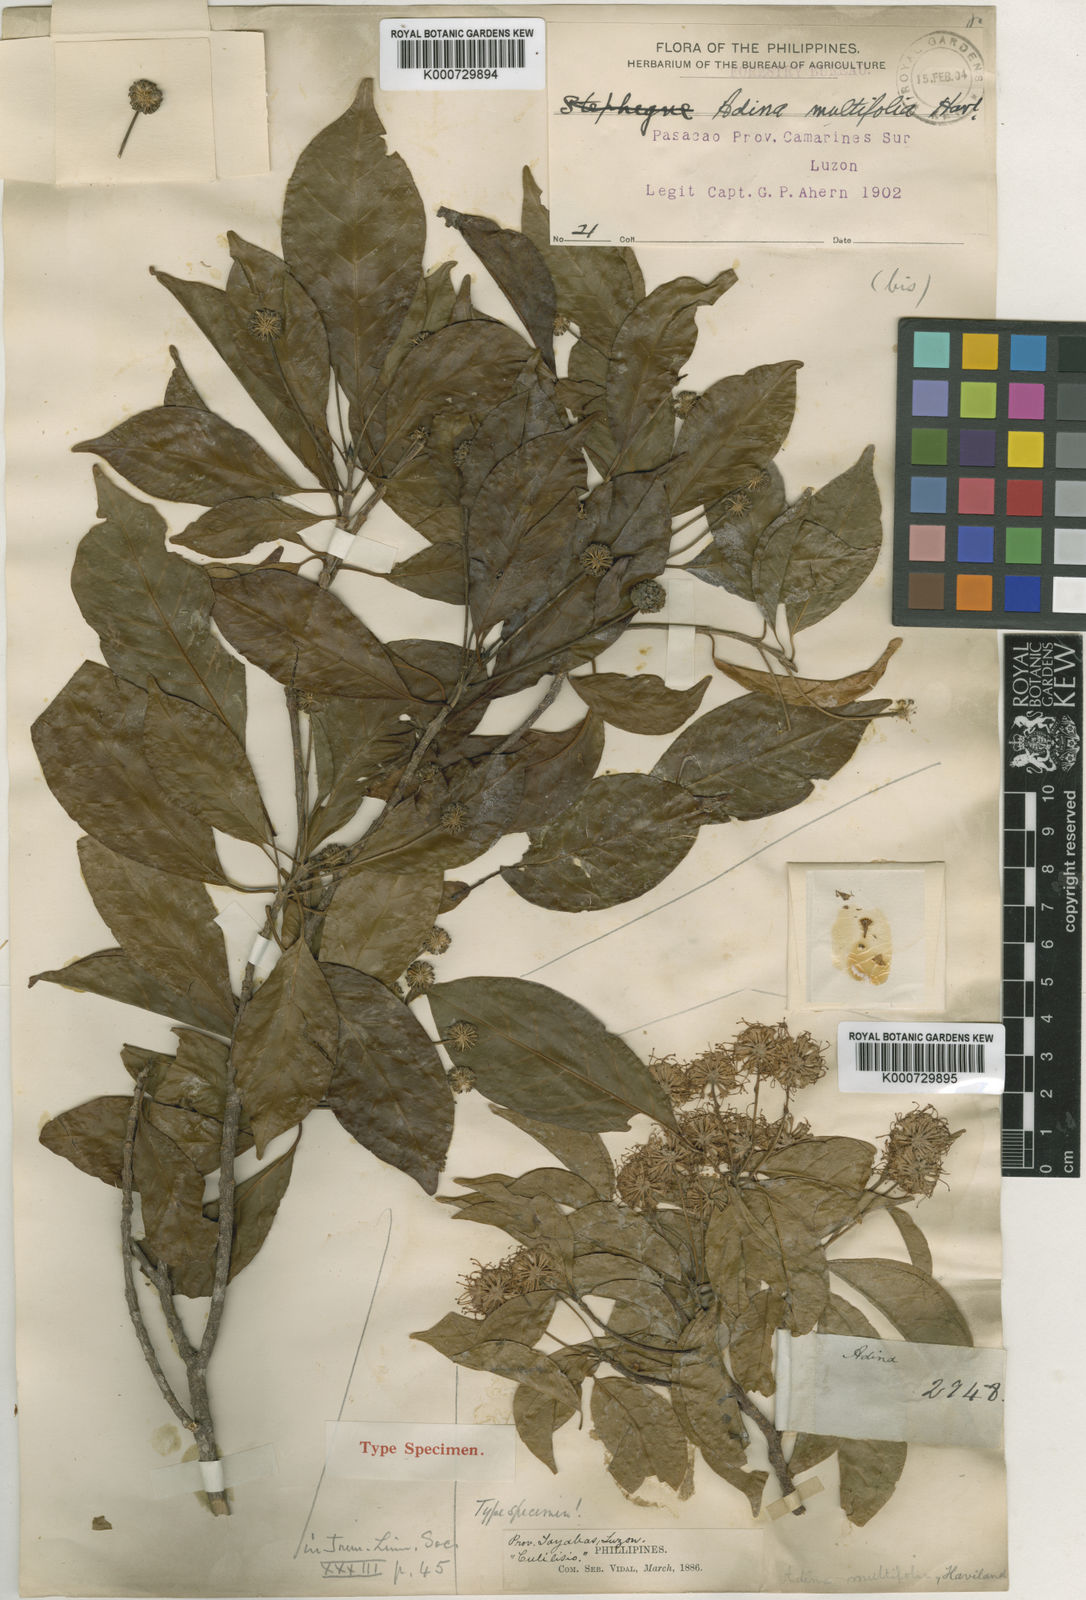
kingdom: Plantae
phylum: Tracheophyta
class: Magnoliopsida
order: Gentianales
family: Rubiaceae
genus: Adina
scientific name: Adina multifolia
